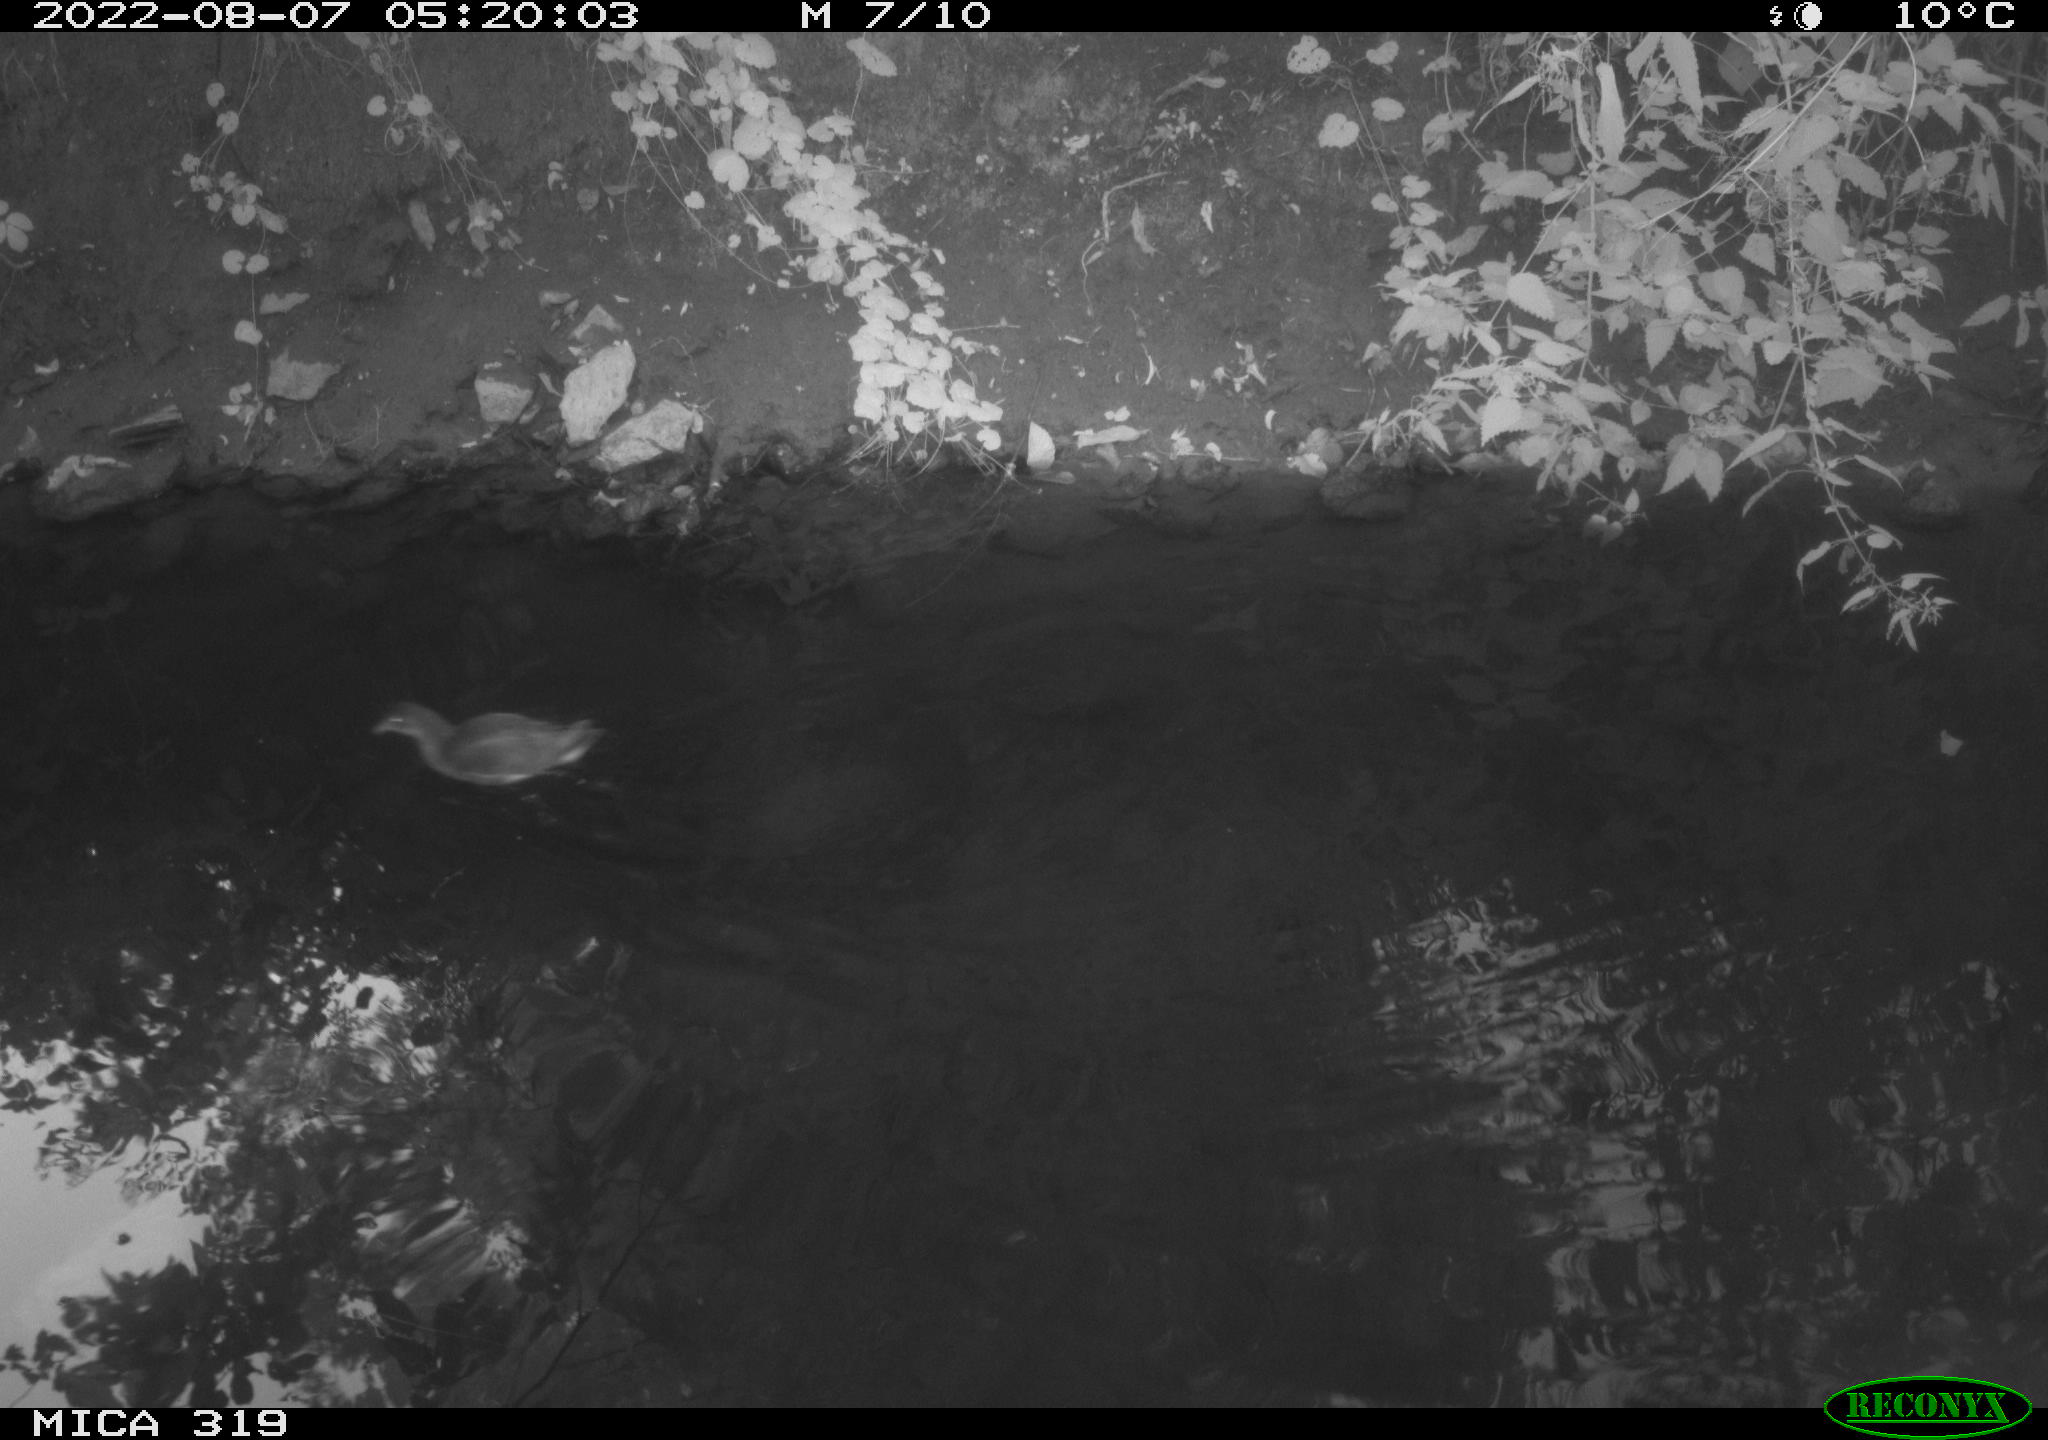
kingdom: Animalia
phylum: Chordata
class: Aves
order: Gruiformes
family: Rallidae
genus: Gallinula
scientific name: Gallinula chloropus
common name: Common moorhen
